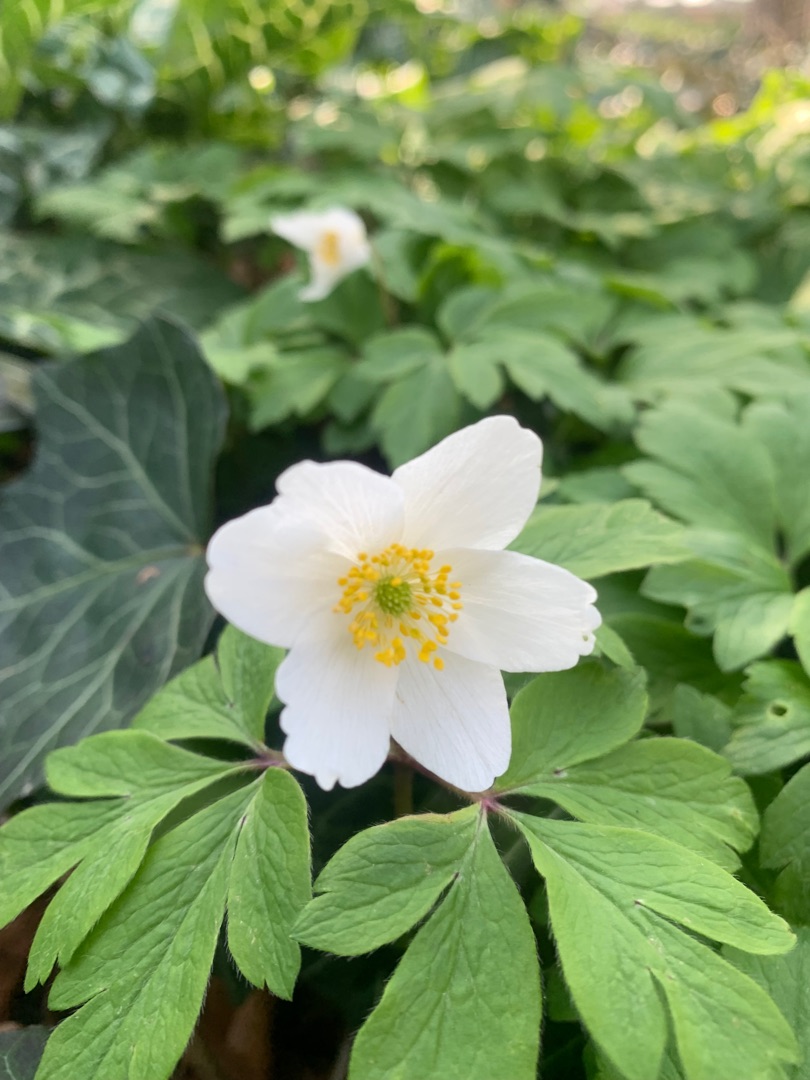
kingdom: Plantae
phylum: Tracheophyta
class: Magnoliopsida
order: Ranunculales
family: Ranunculaceae
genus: Anemone
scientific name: Anemone nemorosa
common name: Hvid anemone
